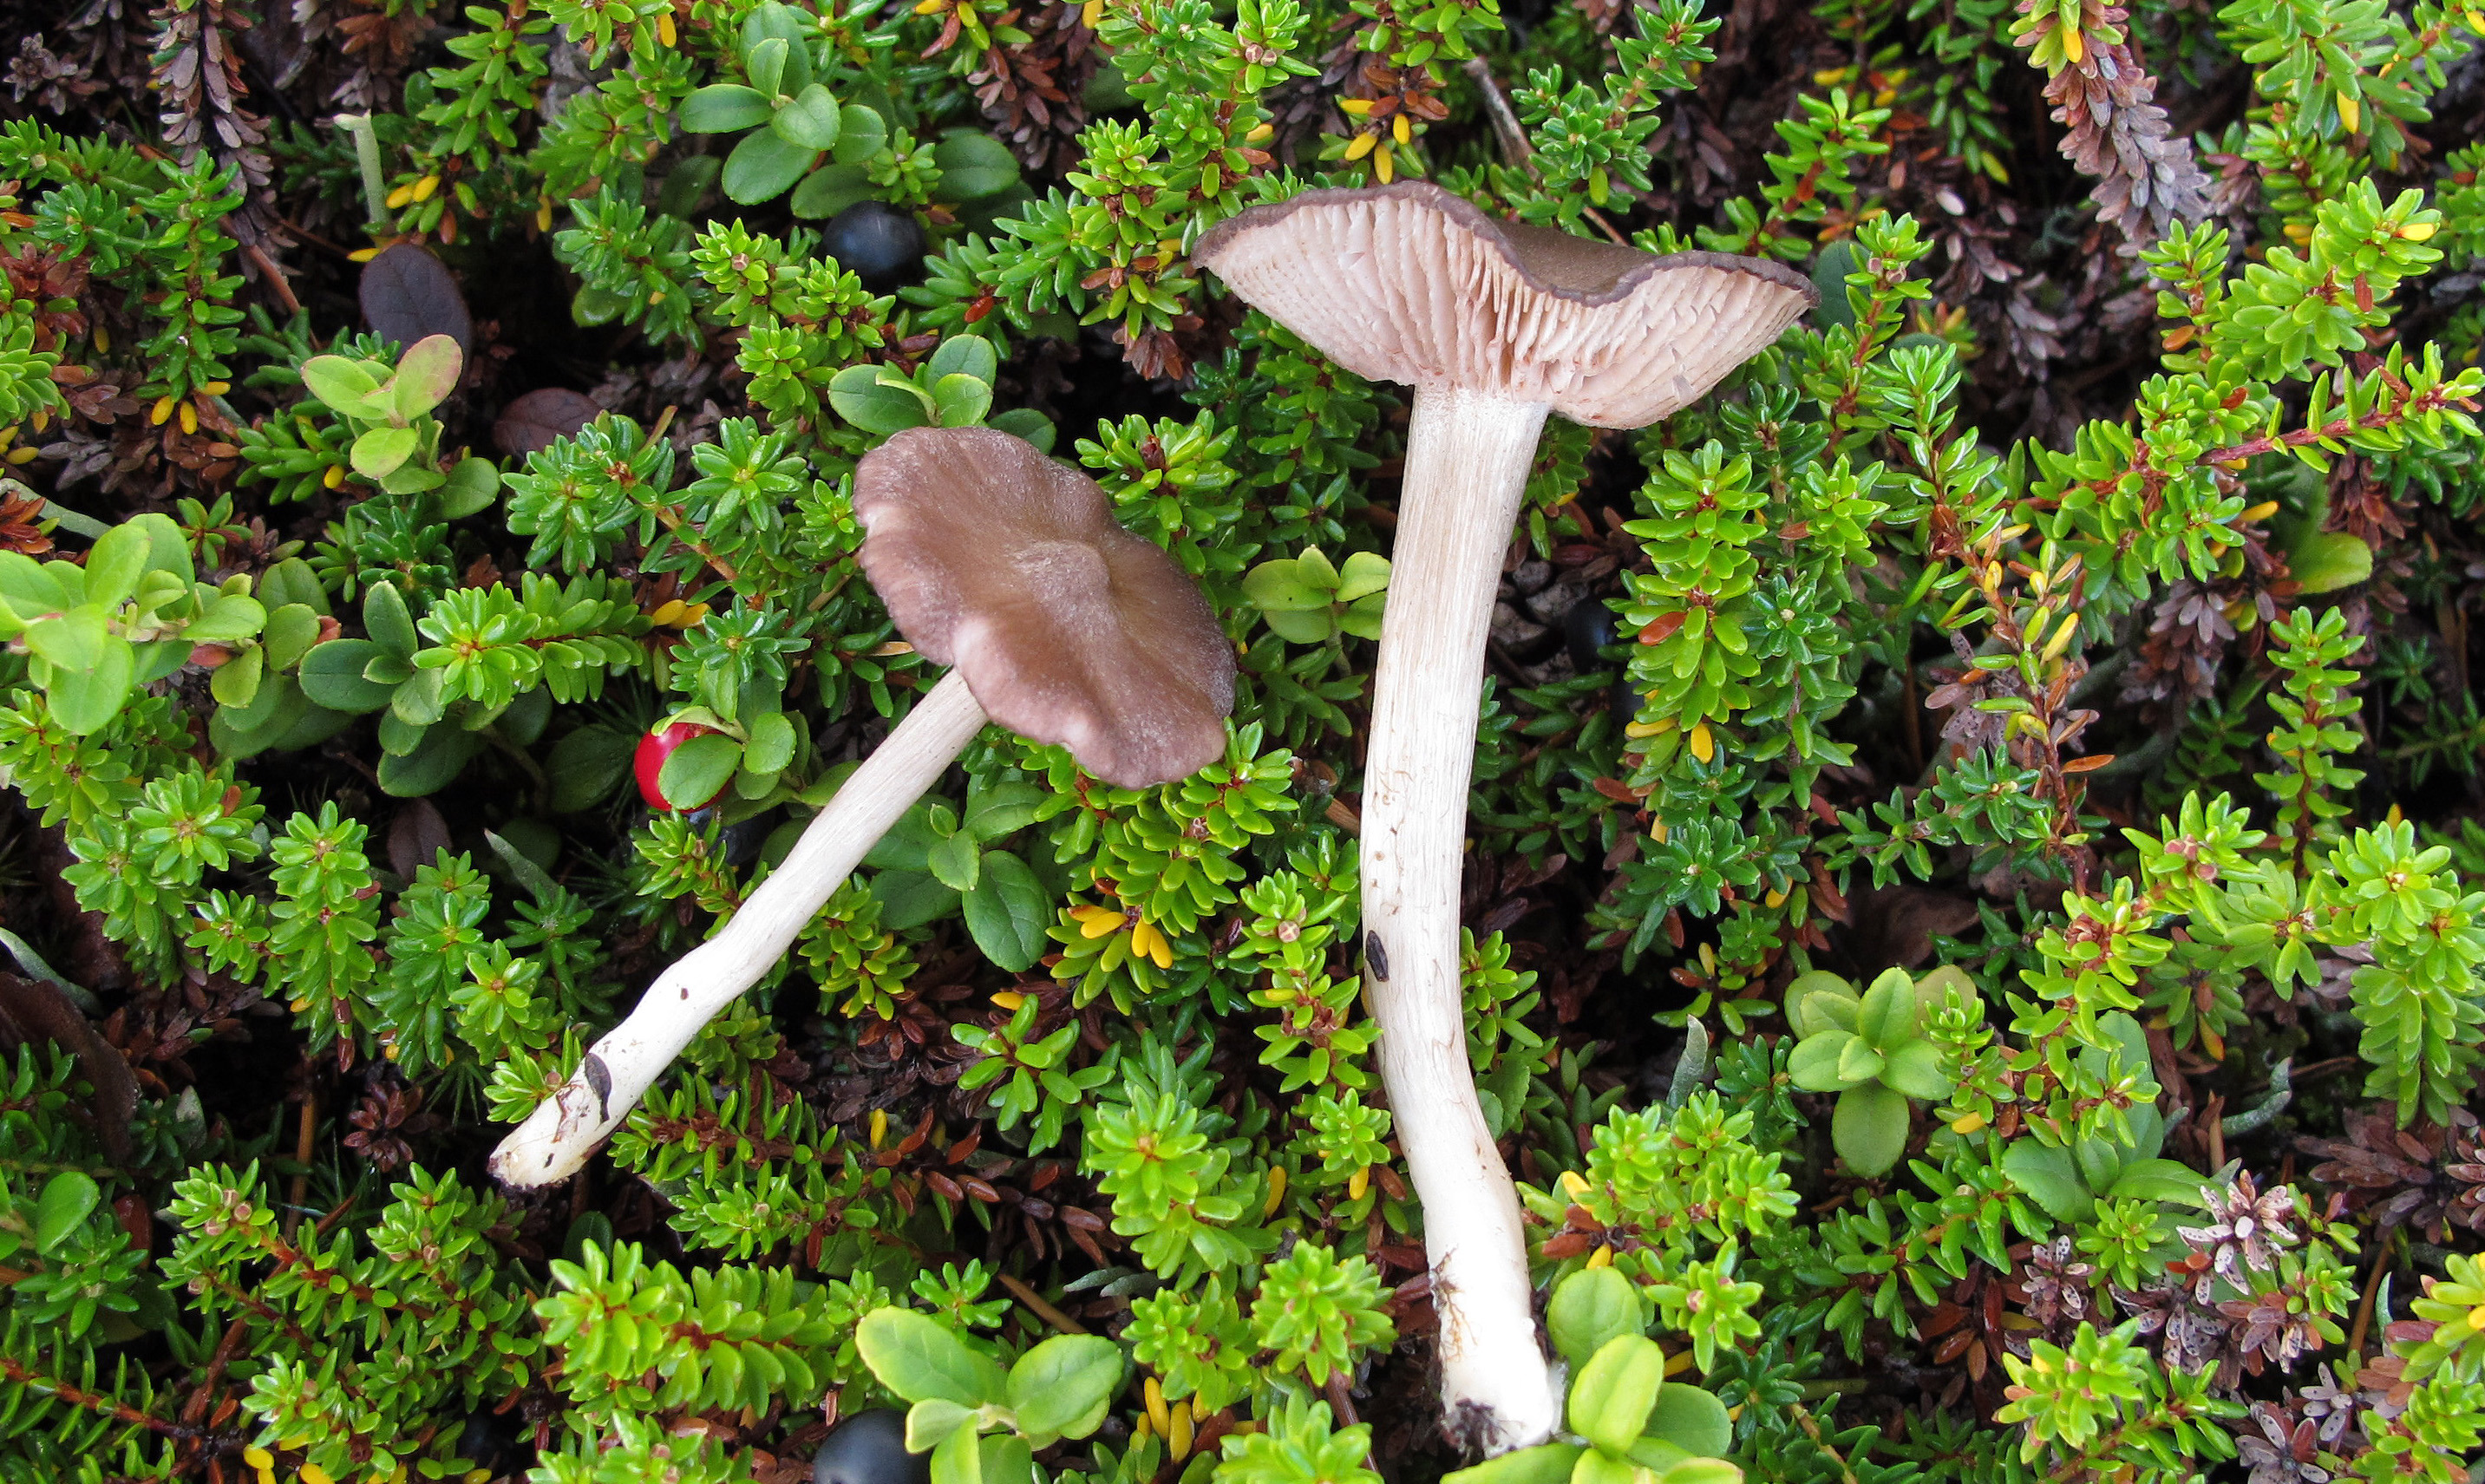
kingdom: Fungi
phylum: Basidiomycota
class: Agaricomycetes
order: Agaricales
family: Entolomataceae
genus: Entoloma
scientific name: Entoloma elodes
